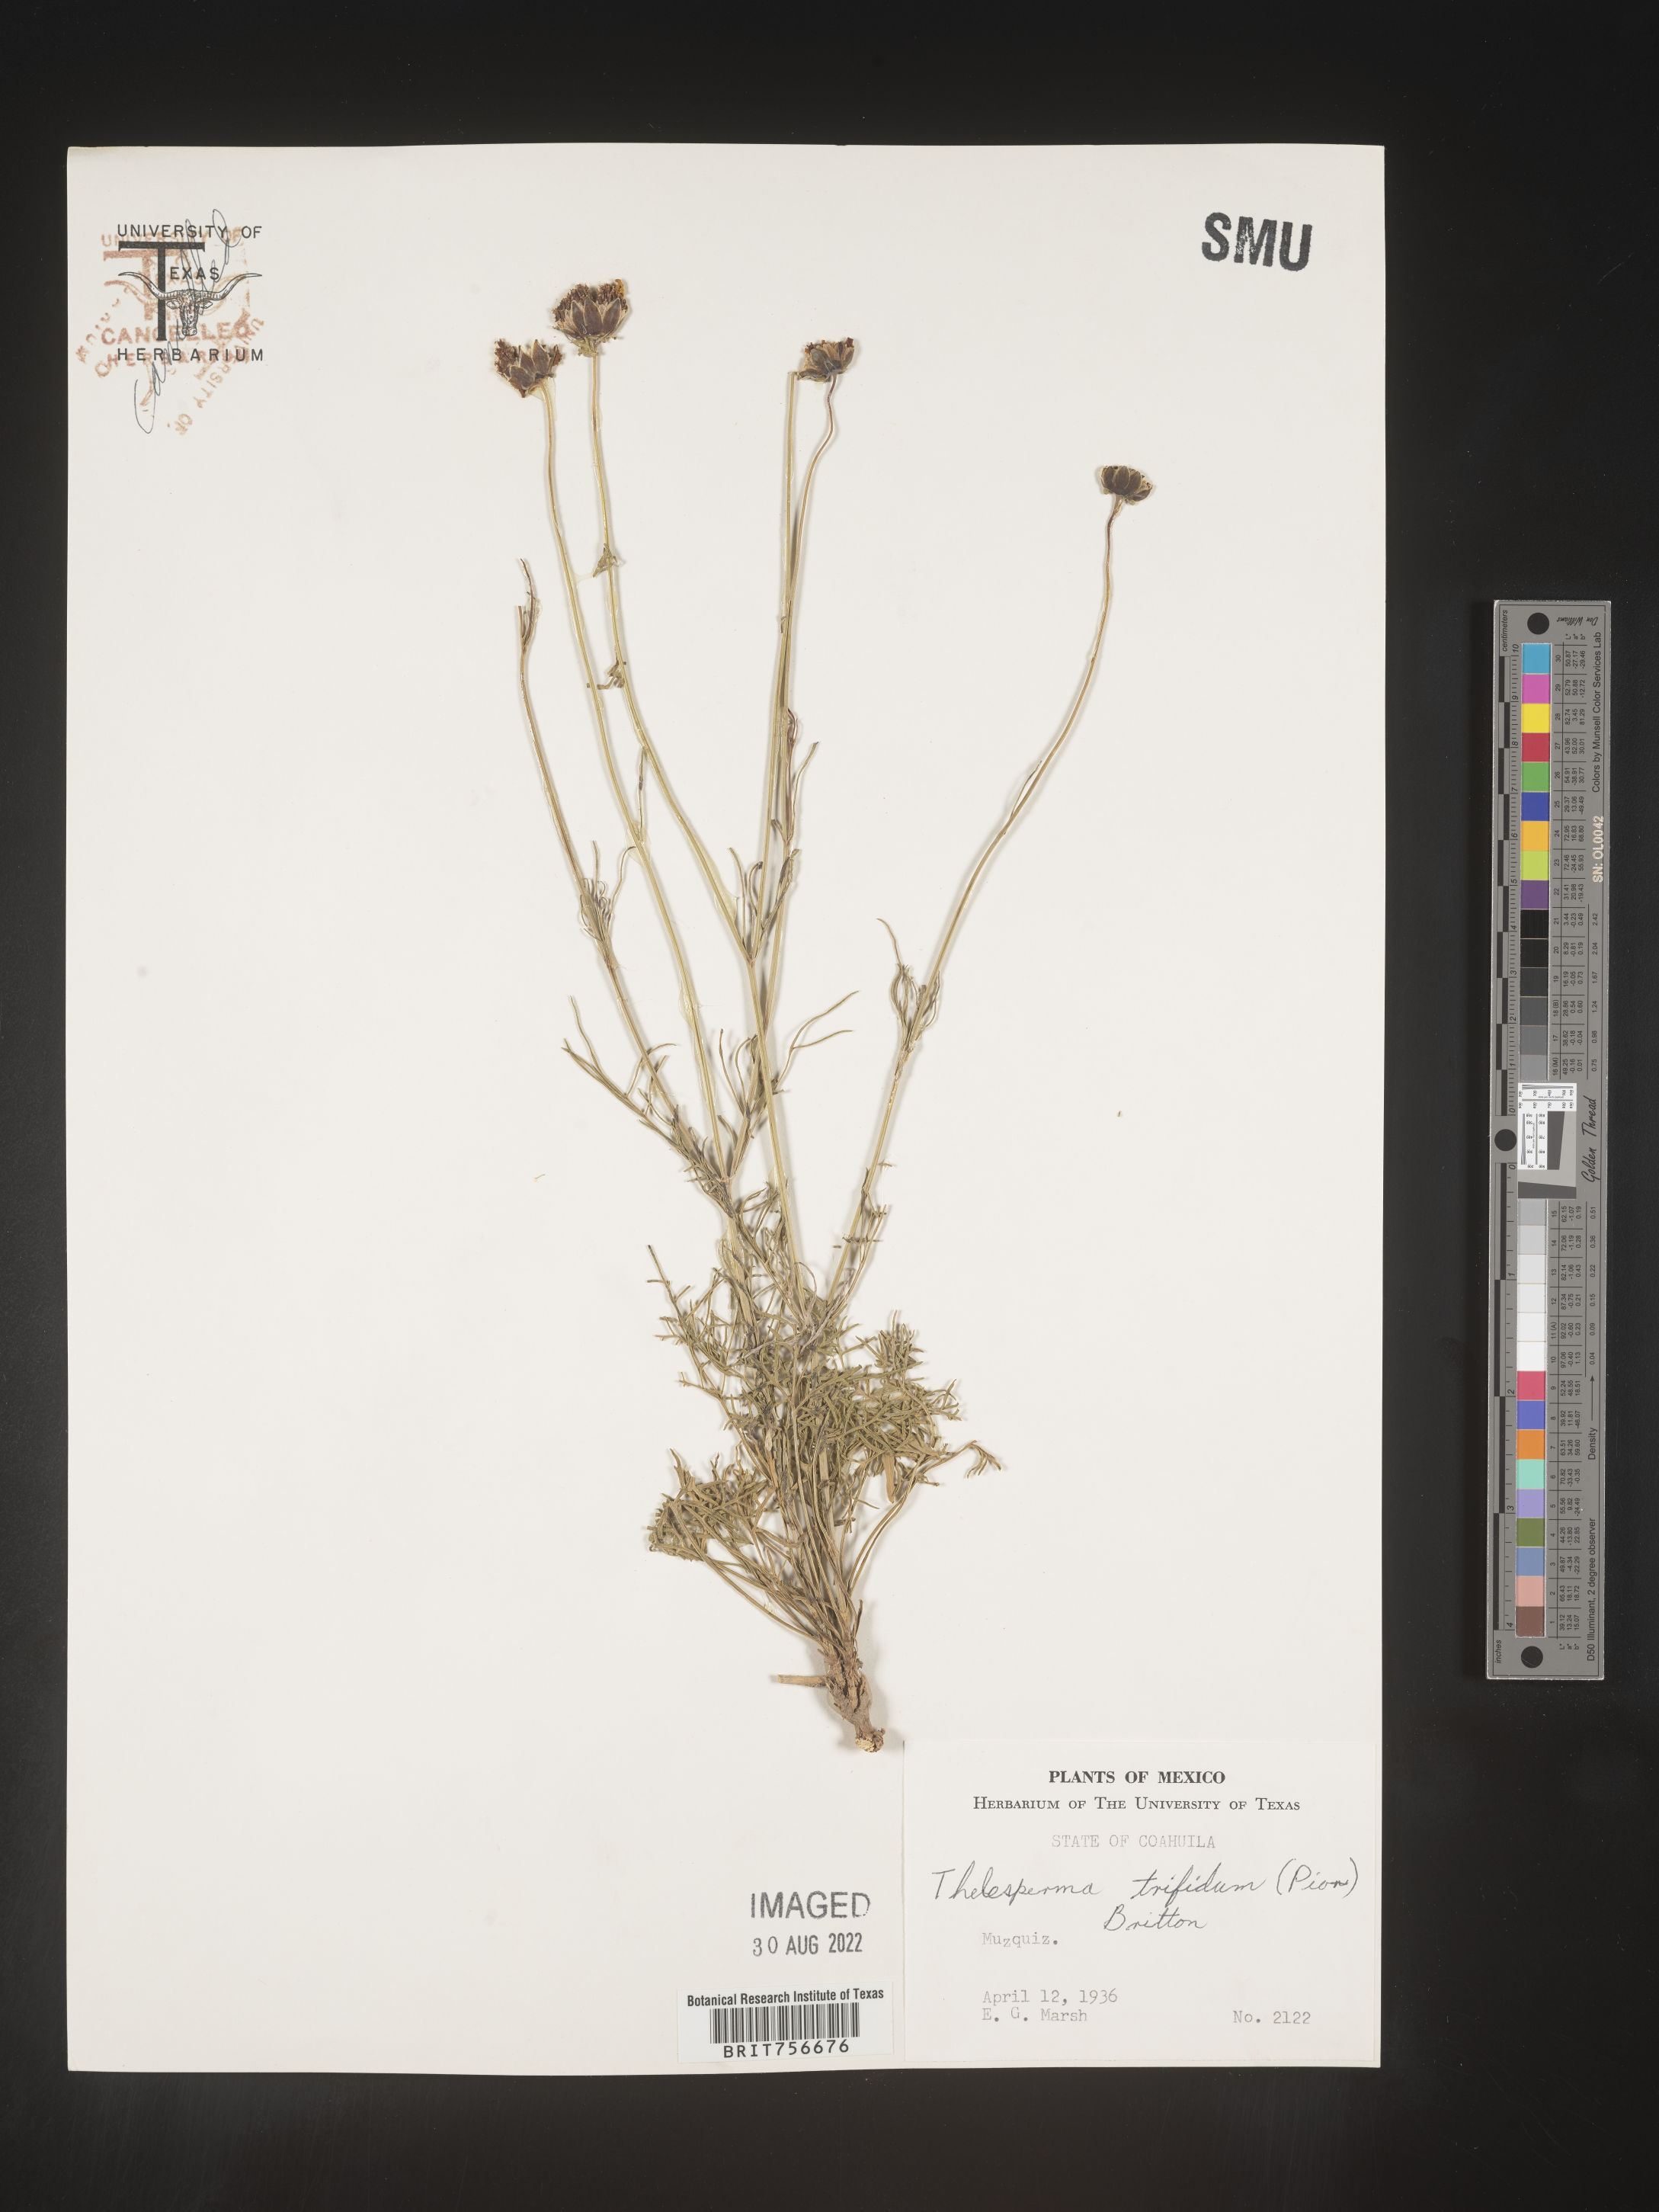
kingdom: Plantae
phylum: Tracheophyta
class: Magnoliopsida
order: Asterales
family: Asteraceae
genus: Thelesperma
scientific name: Thelesperma
